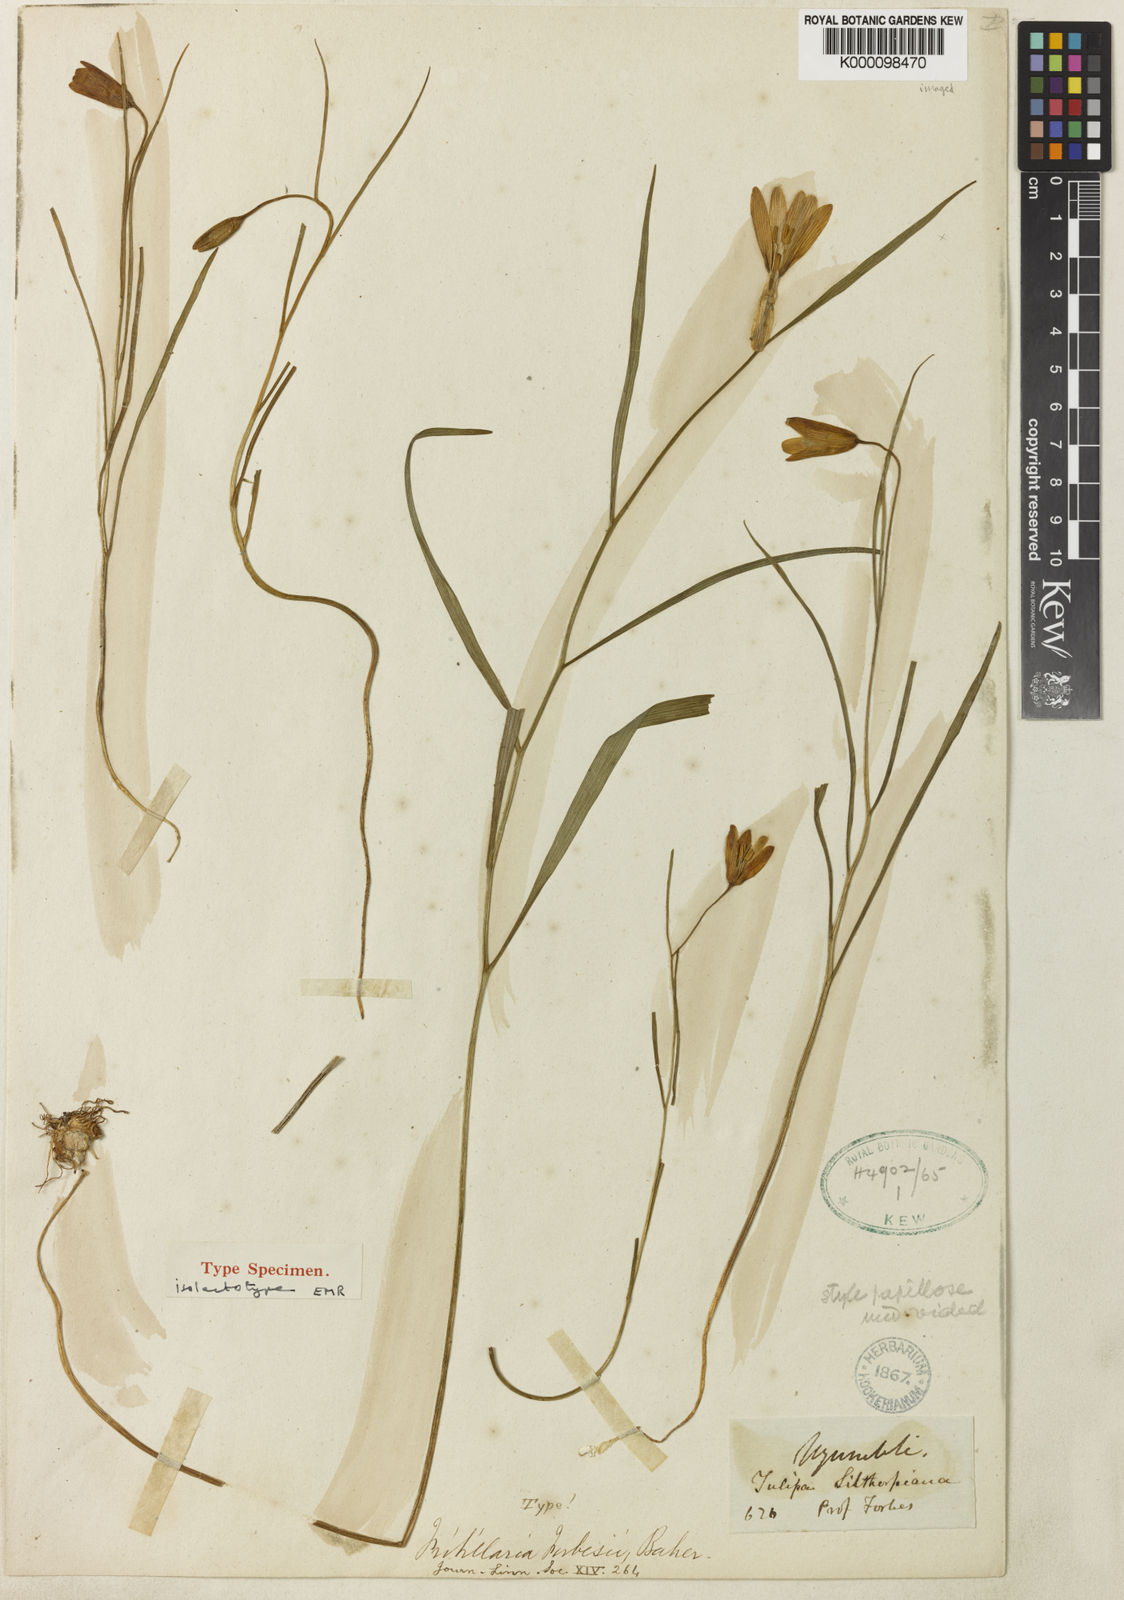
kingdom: Plantae
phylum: Tracheophyta
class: Liliopsida
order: Liliales
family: Liliaceae
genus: Fritillaria
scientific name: Fritillaria forbesii
